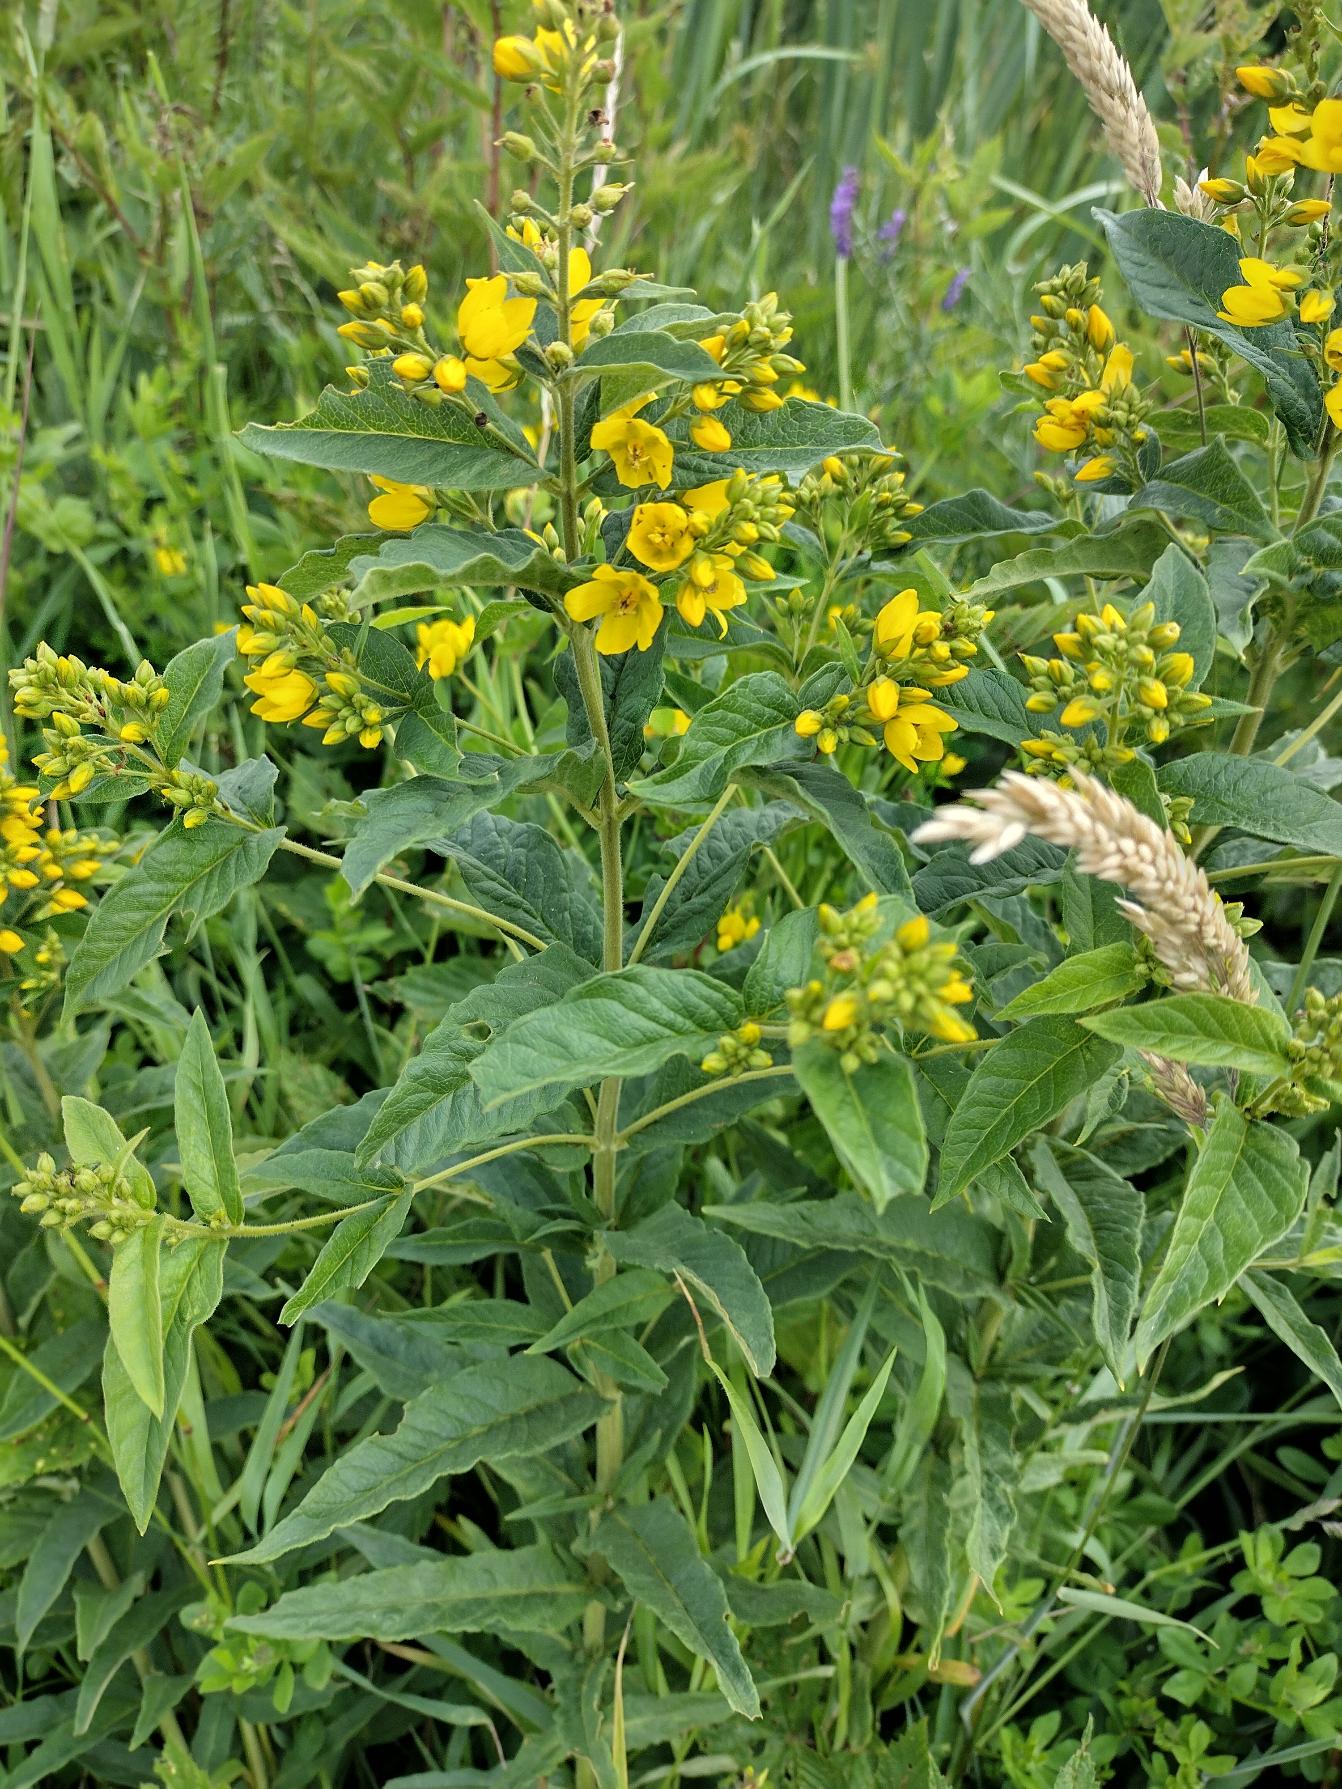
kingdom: Plantae
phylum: Tracheophyta
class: Magnoliopsida
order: Ericales
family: Primulaceae
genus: Lysimachia
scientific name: Lysimachia vulgaris
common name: Almindelig fredløs
